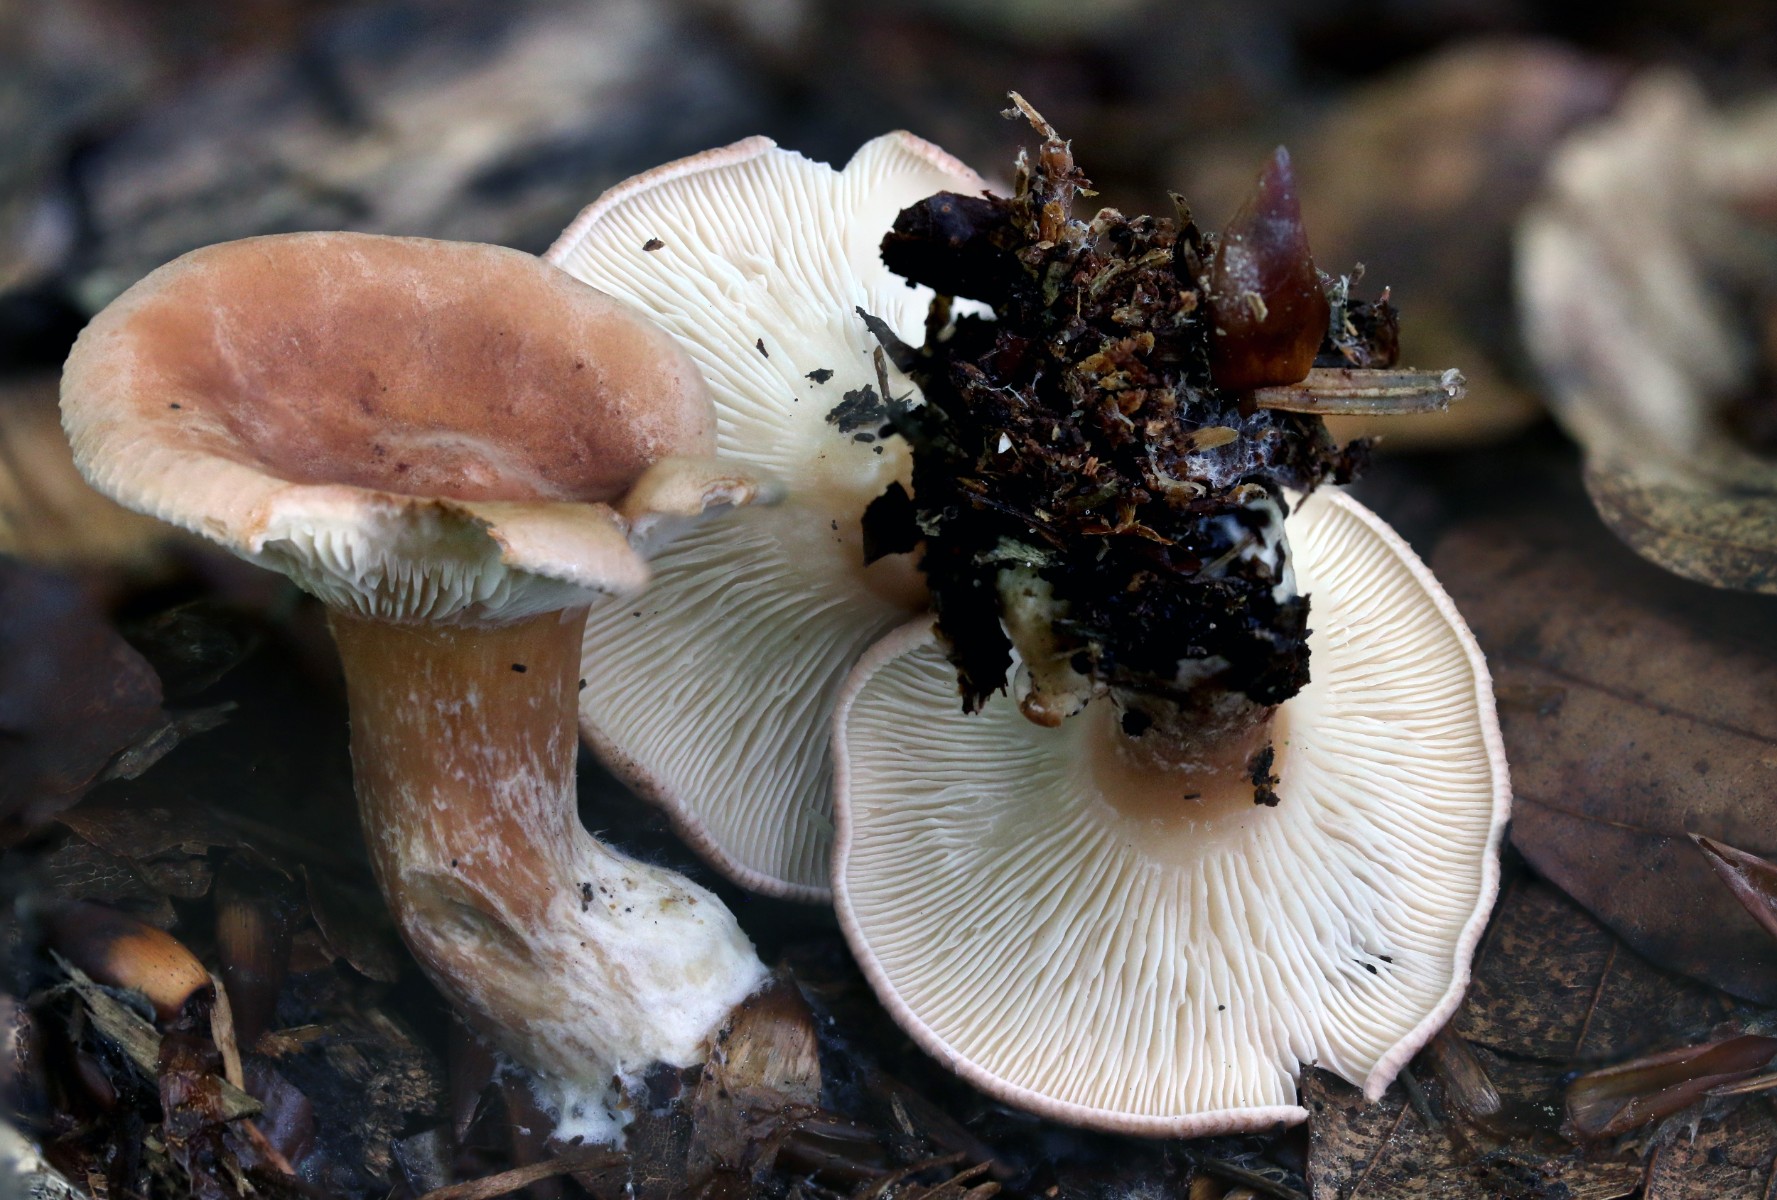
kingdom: Fungi
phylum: Basidiomycota
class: Agaricomycetes
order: Agaricales
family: Tricholomataceae
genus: Infundibulicybe
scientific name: Infundibulicybe gibba
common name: almindelig tragthat
